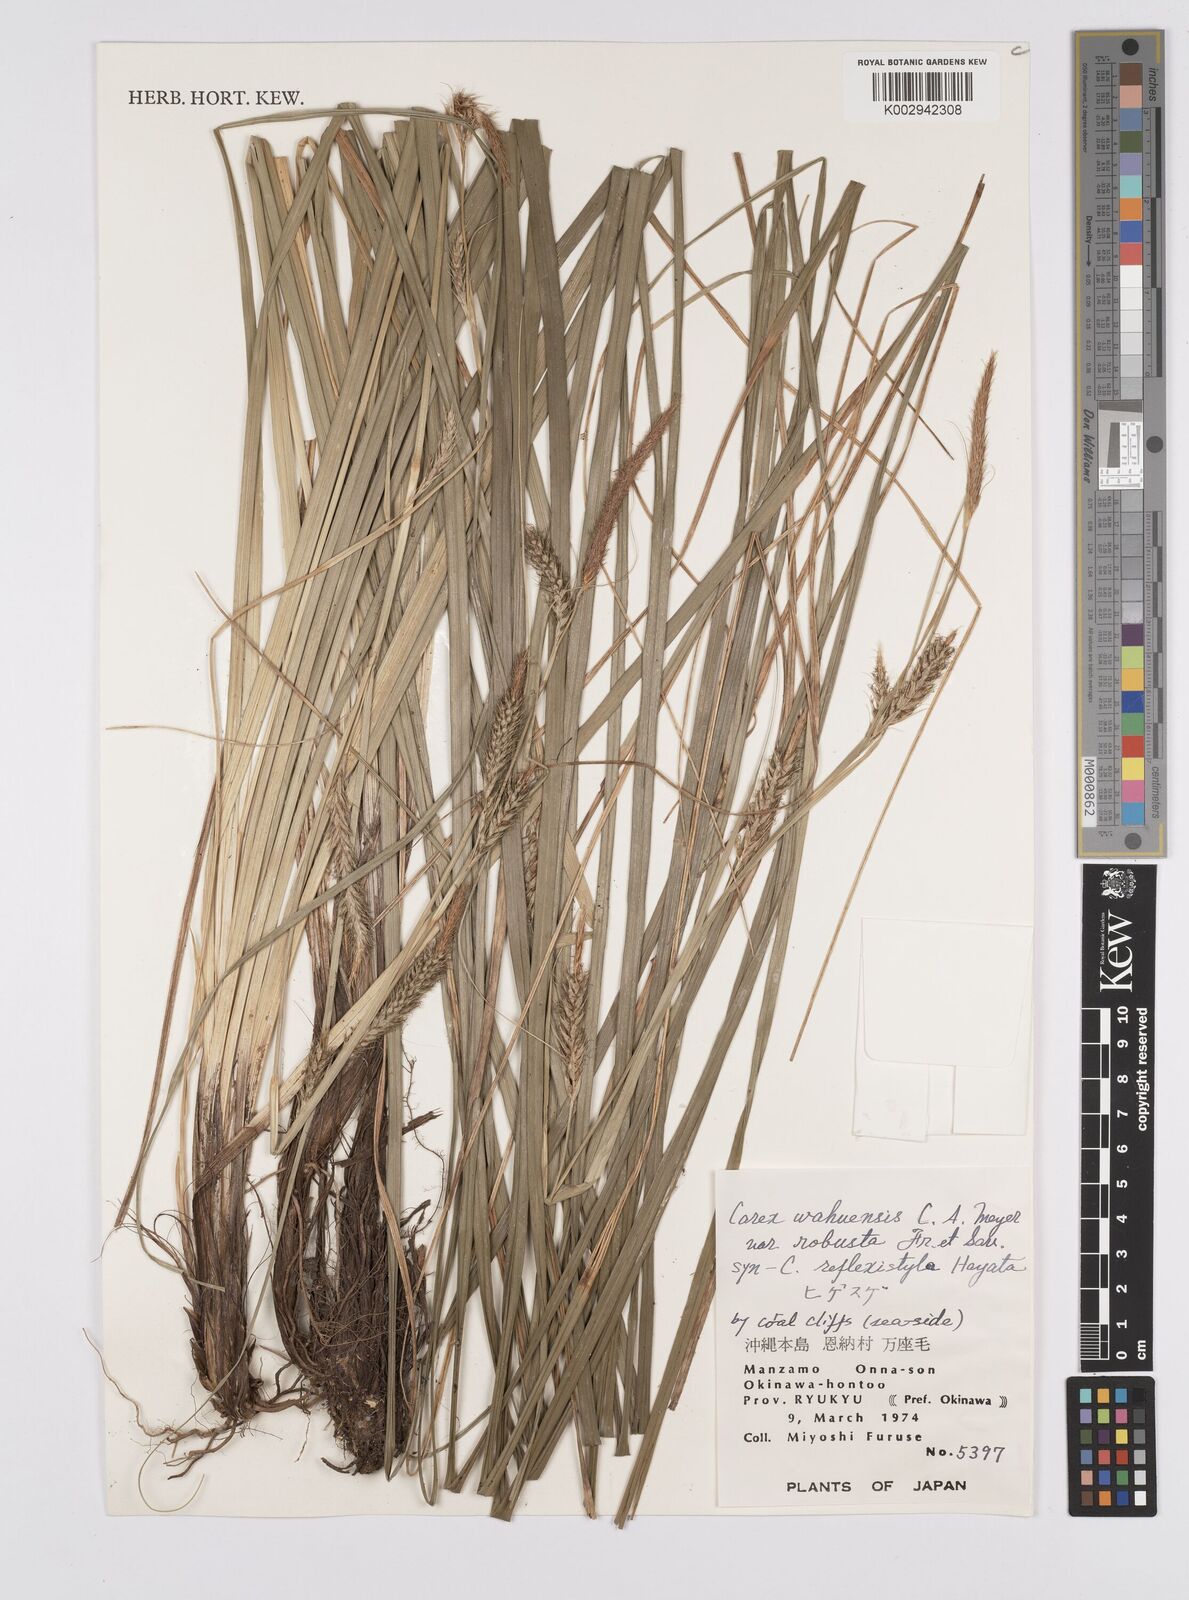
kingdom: Plantae
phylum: Tracheophyta
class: Liliopsida
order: Poales
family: Cyperaceae
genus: Carex
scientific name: Carex wahuensis
